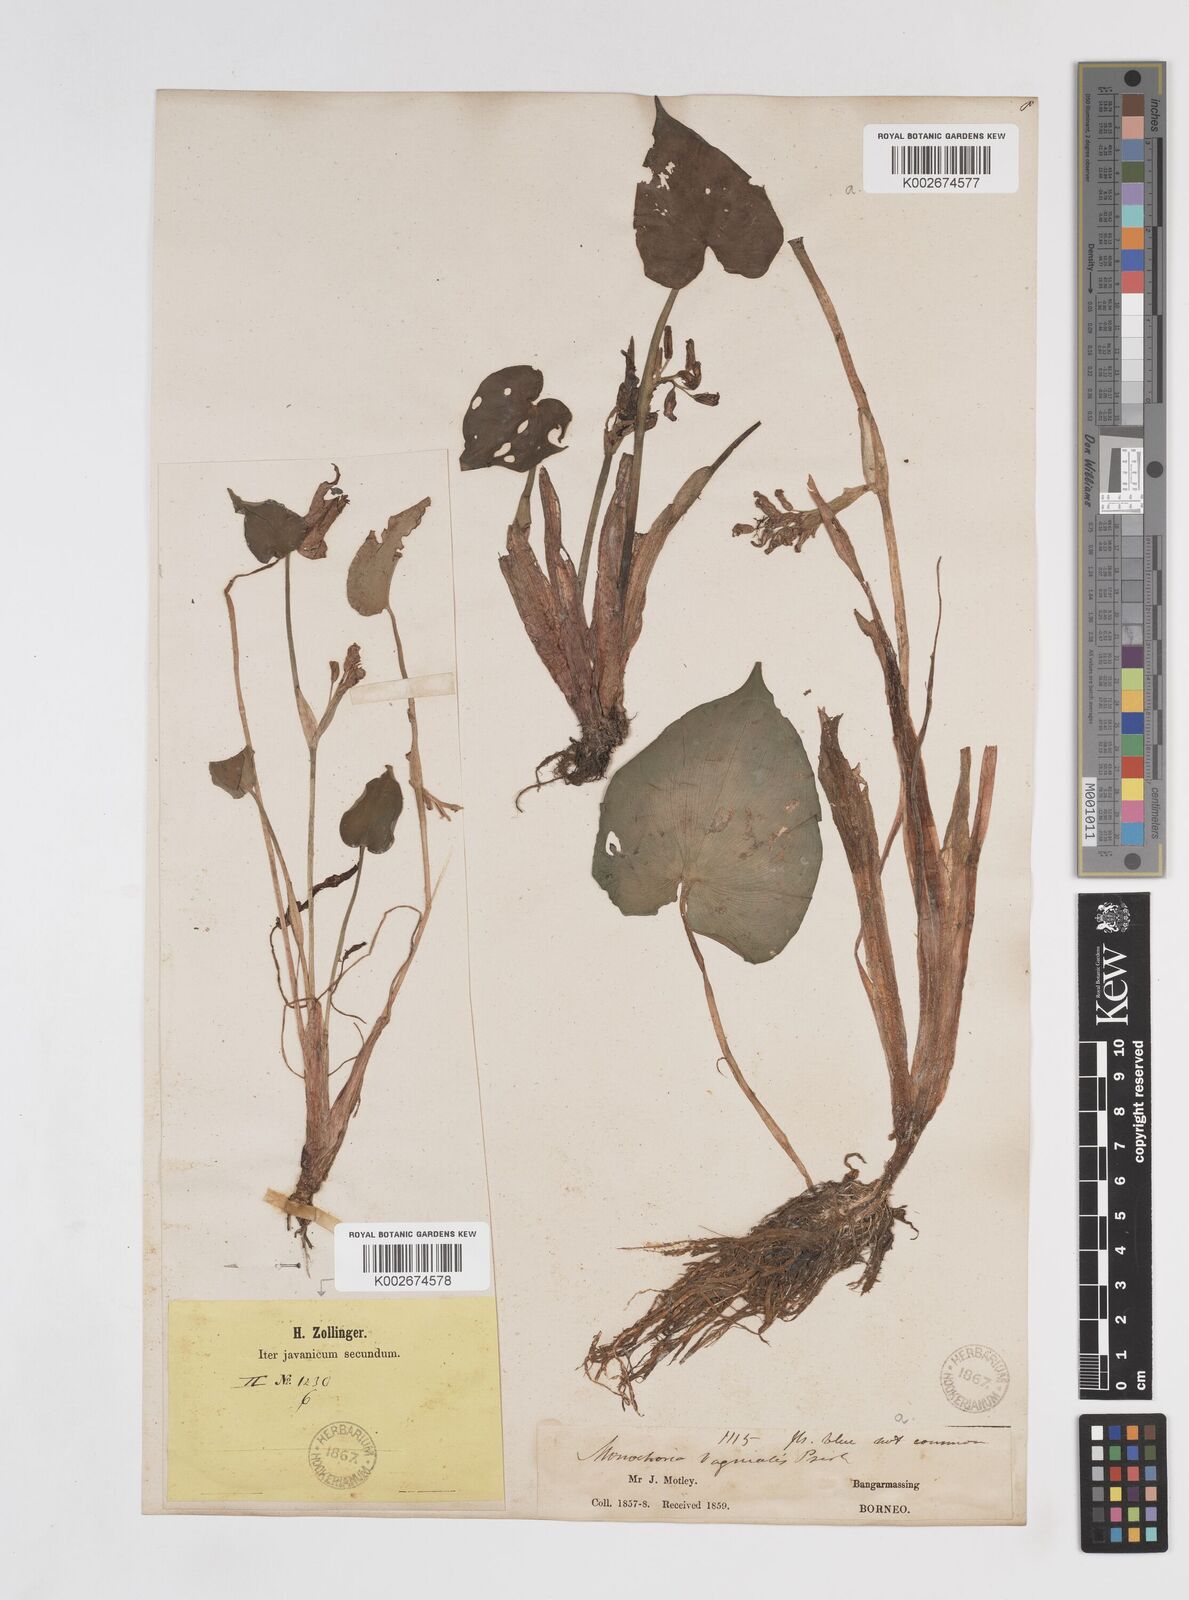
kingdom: Plantae
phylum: Tracheophyta
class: Liliopsida
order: Commelinales
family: Pontederiaceae
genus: Pontederia
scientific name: Pontederia vaginalis
